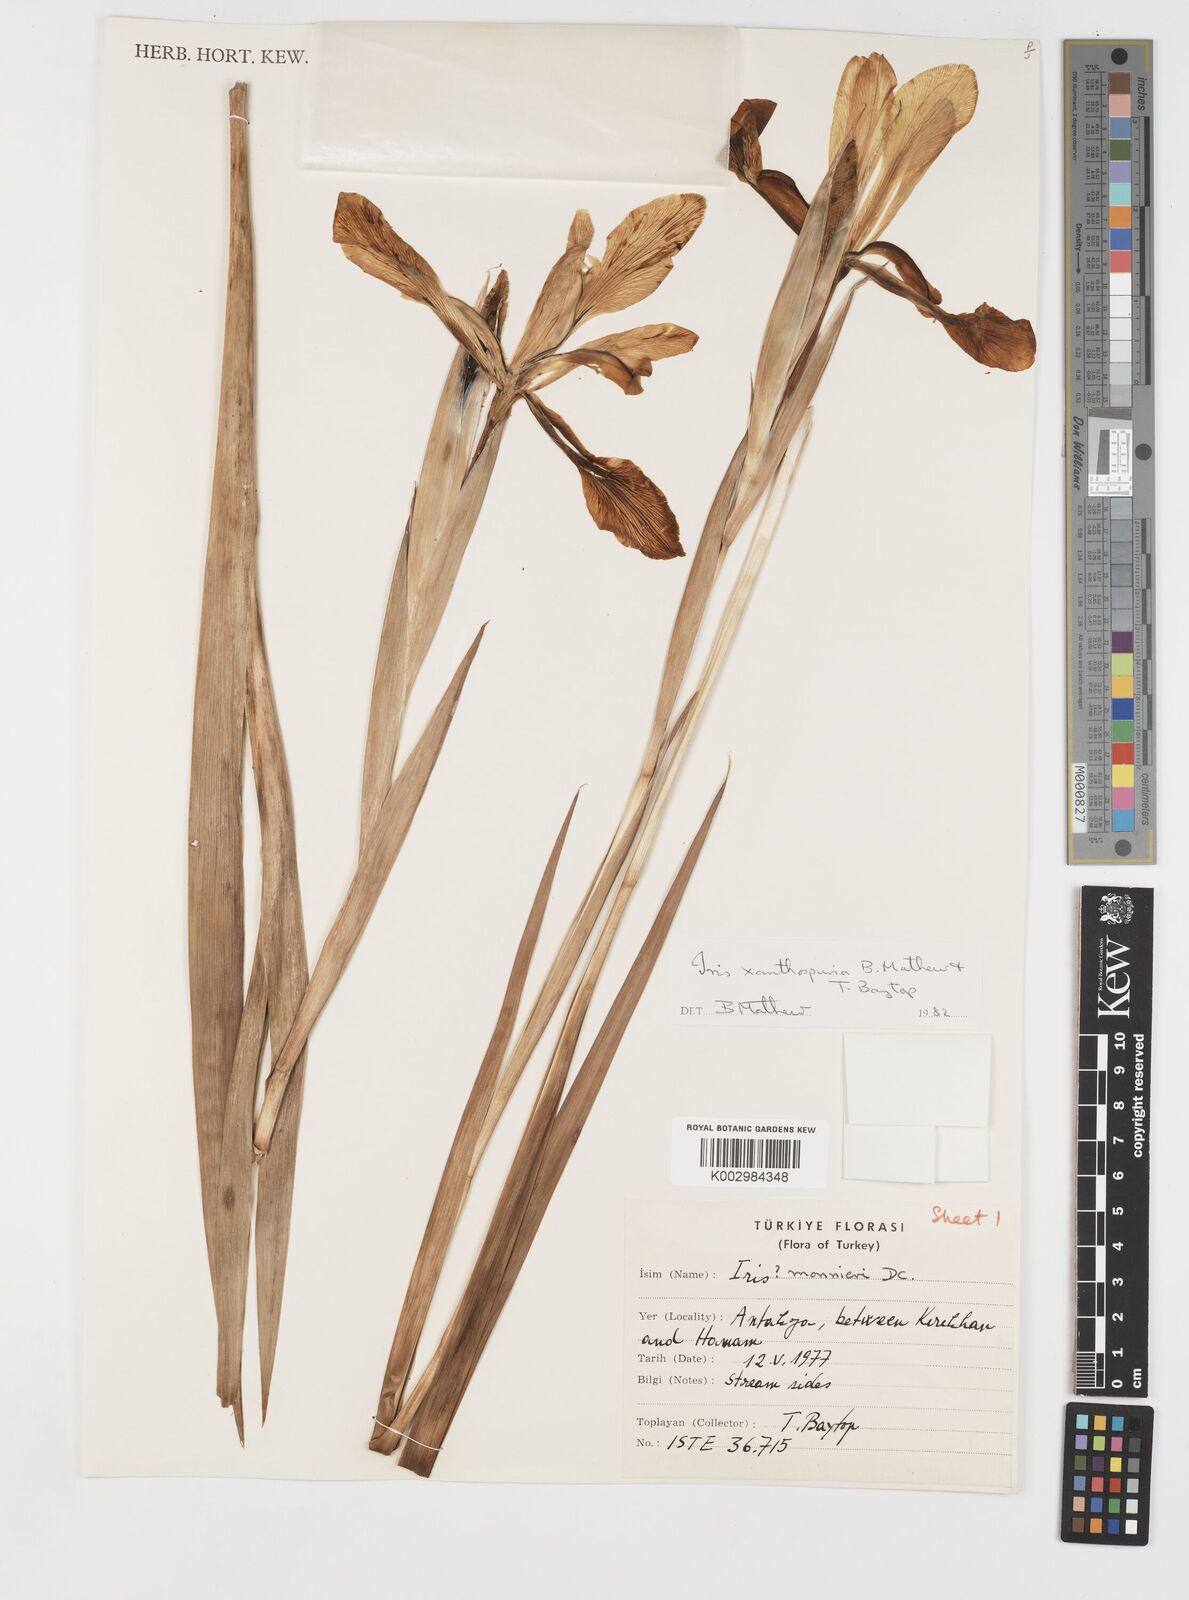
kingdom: Plantae
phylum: Tracheophyta
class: Liliopsida
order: Asparagales
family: Iridaceae
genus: Iris
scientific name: Iris spuria
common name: Blue iris
